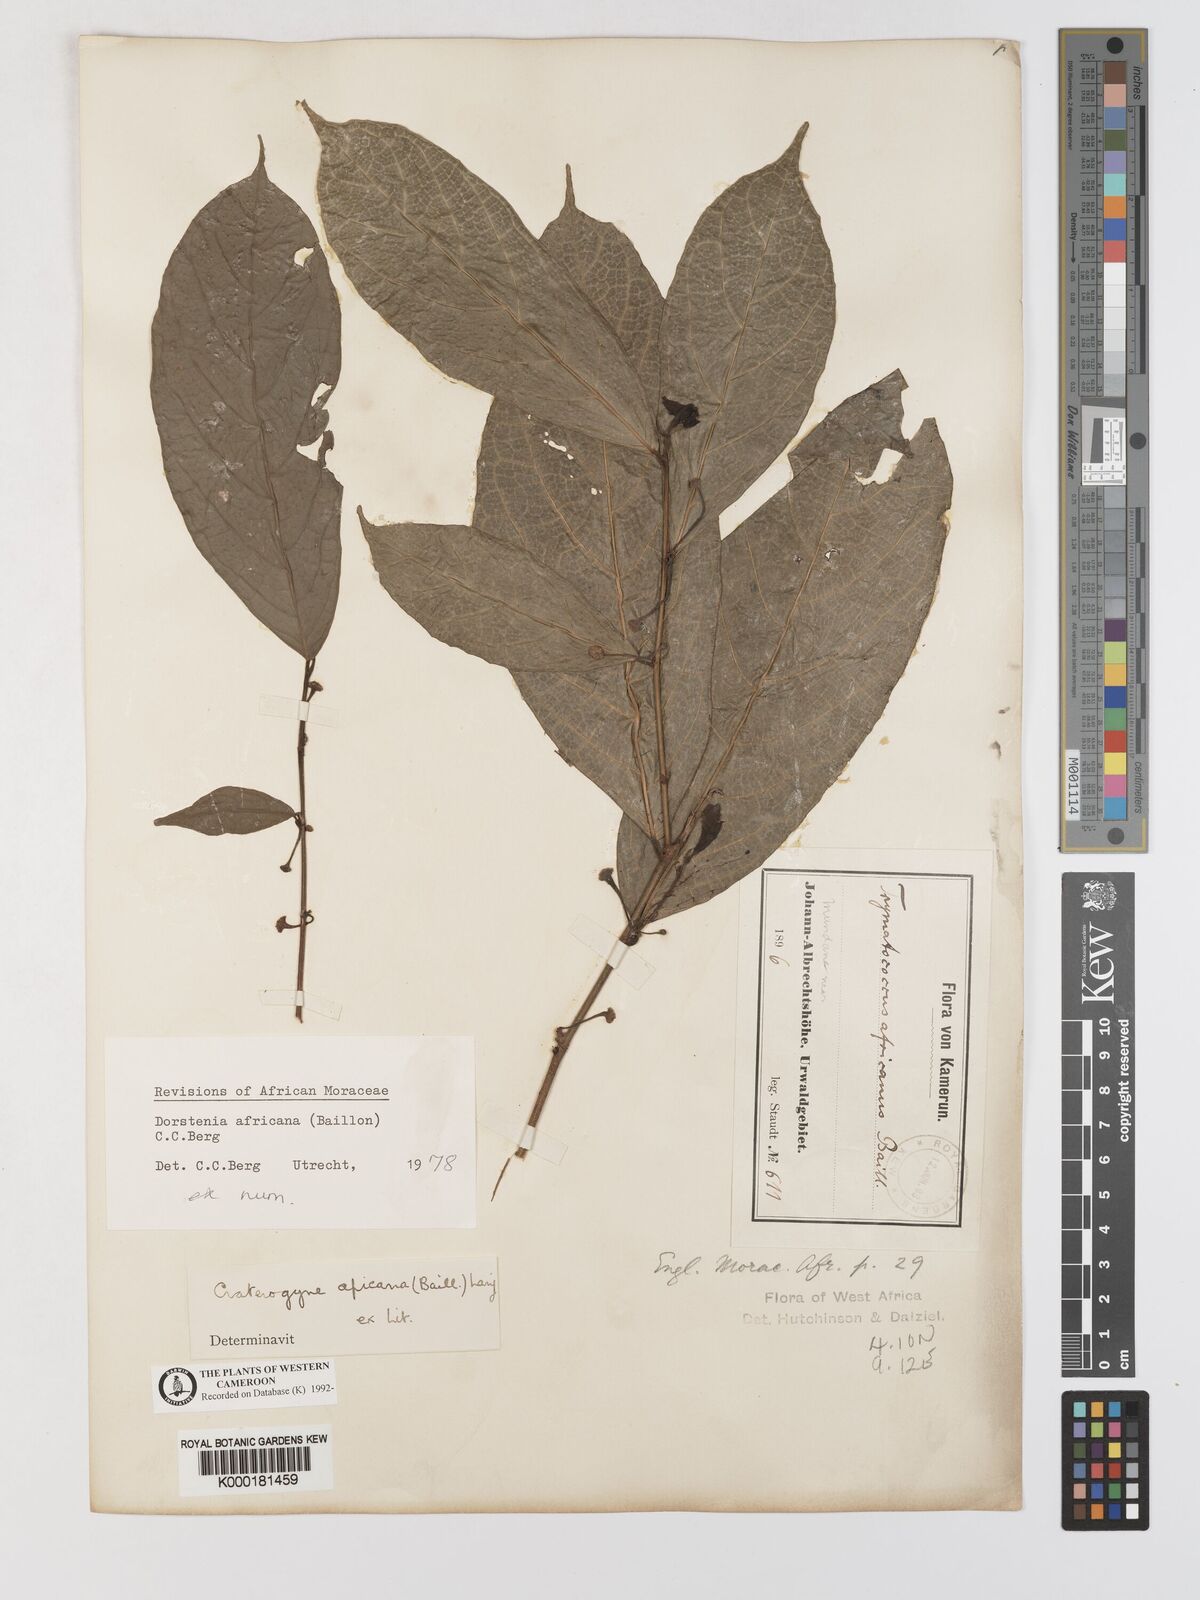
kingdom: Plantae
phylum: Tracheophyta
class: Magnoliopsida
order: Rosales
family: Moraceae
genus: Dorstenia
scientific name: Dorstenia africana
